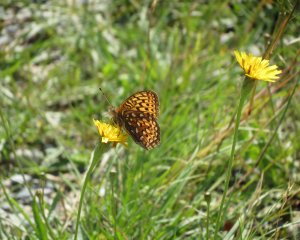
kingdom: Animalia
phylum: Arthropoda
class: Insecta
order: Lepidoptera
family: Nymphalidae
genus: Speyeria
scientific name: Speyeria atlantis
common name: Atlantis Fritillary
